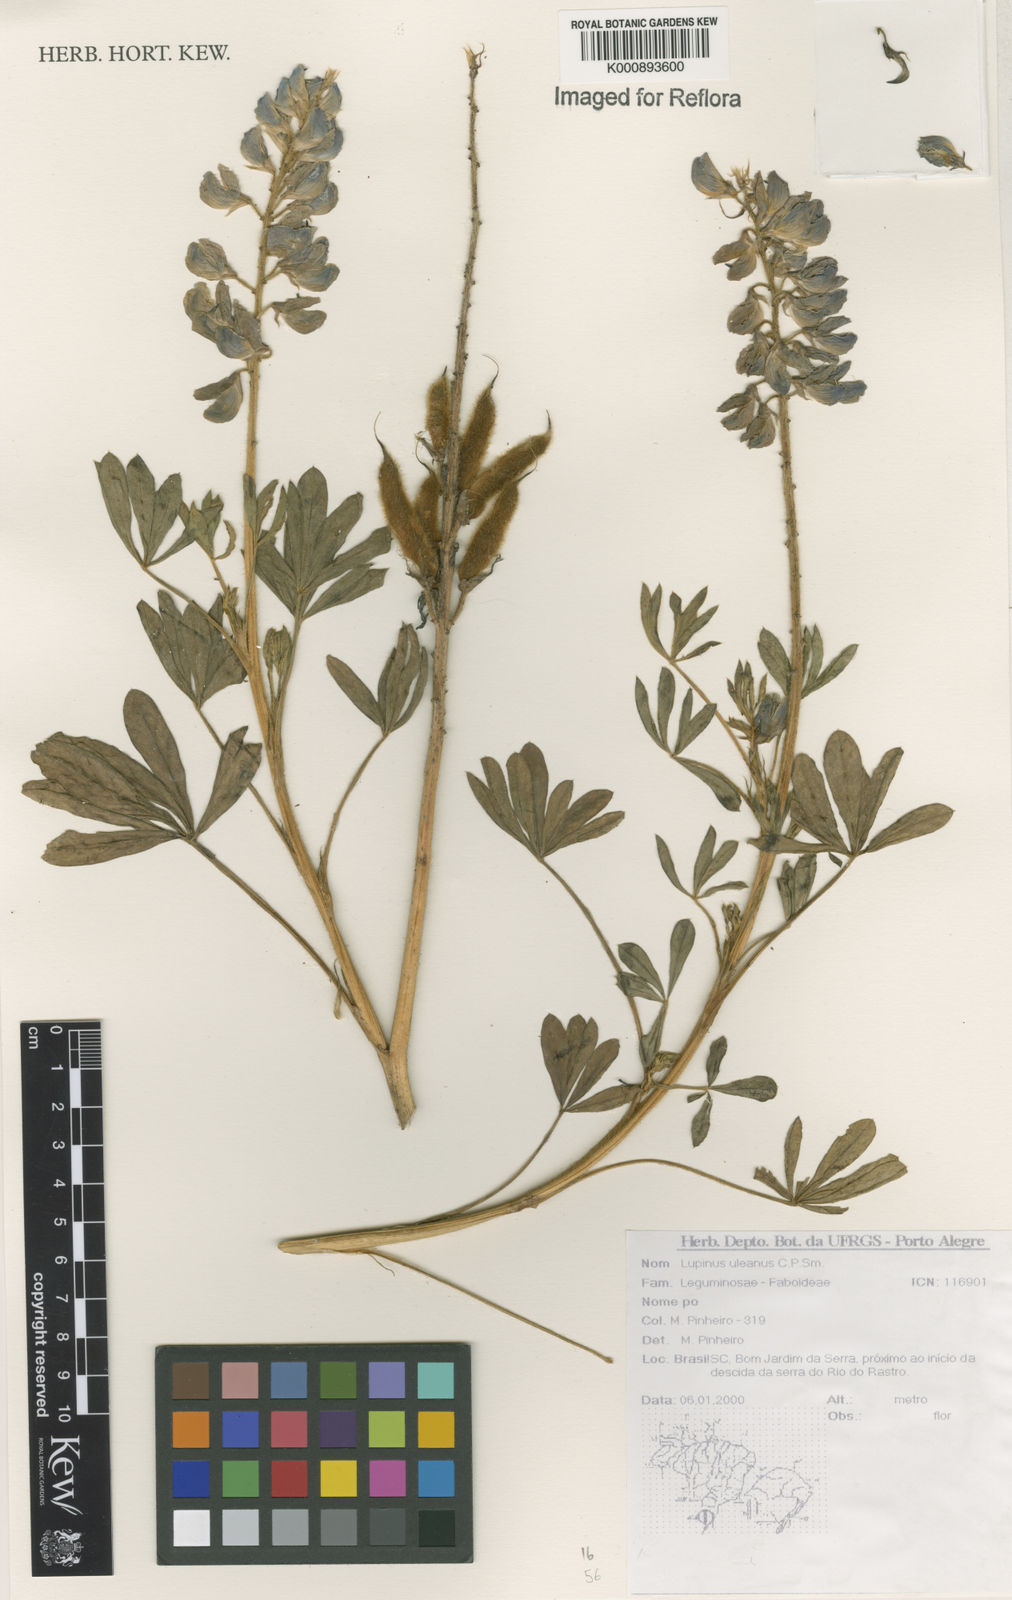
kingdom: Plantae
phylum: Tracheophyta
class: Magnoliopsida
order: Fabales
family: Fabaceae
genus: Lupinus
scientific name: Lupinus uleanus
